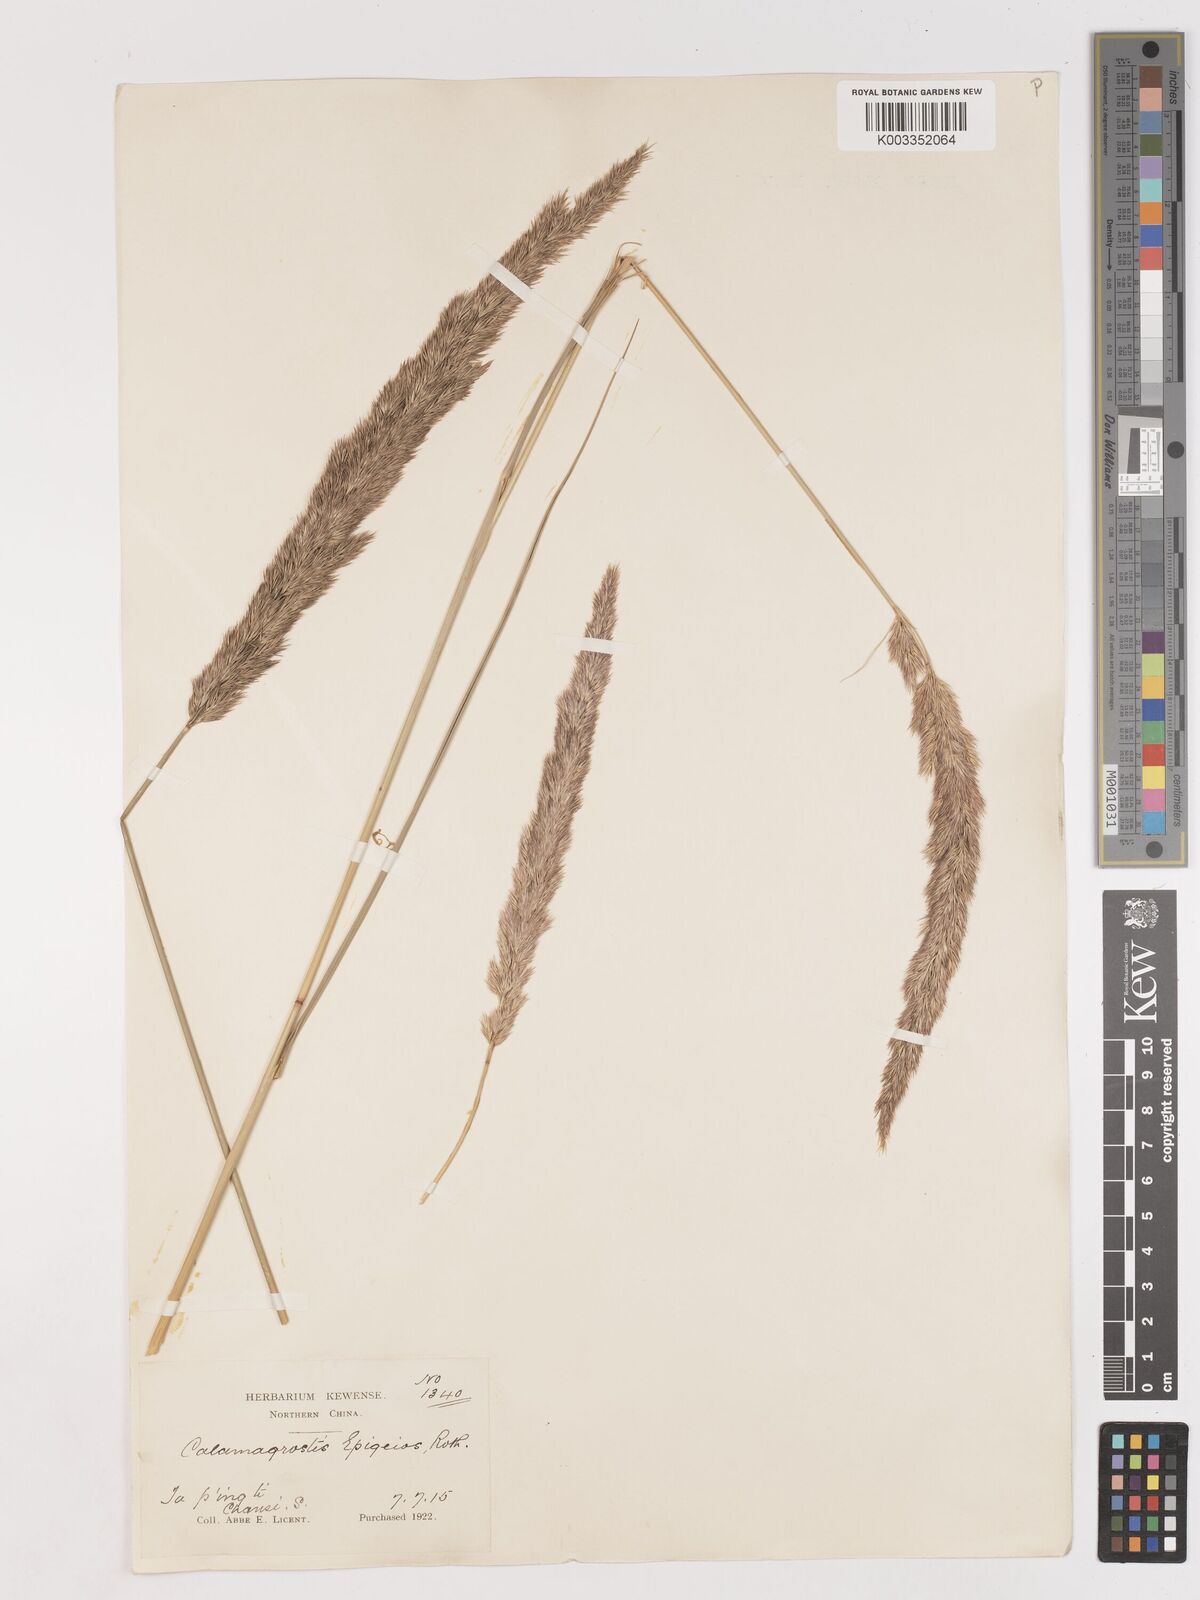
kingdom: Plantae
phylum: Tracheophyta
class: Liliopsida
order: Poales
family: Poaceae
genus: Calamagrostis
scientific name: Calamagrostis epigejos
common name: Wood small-reed
